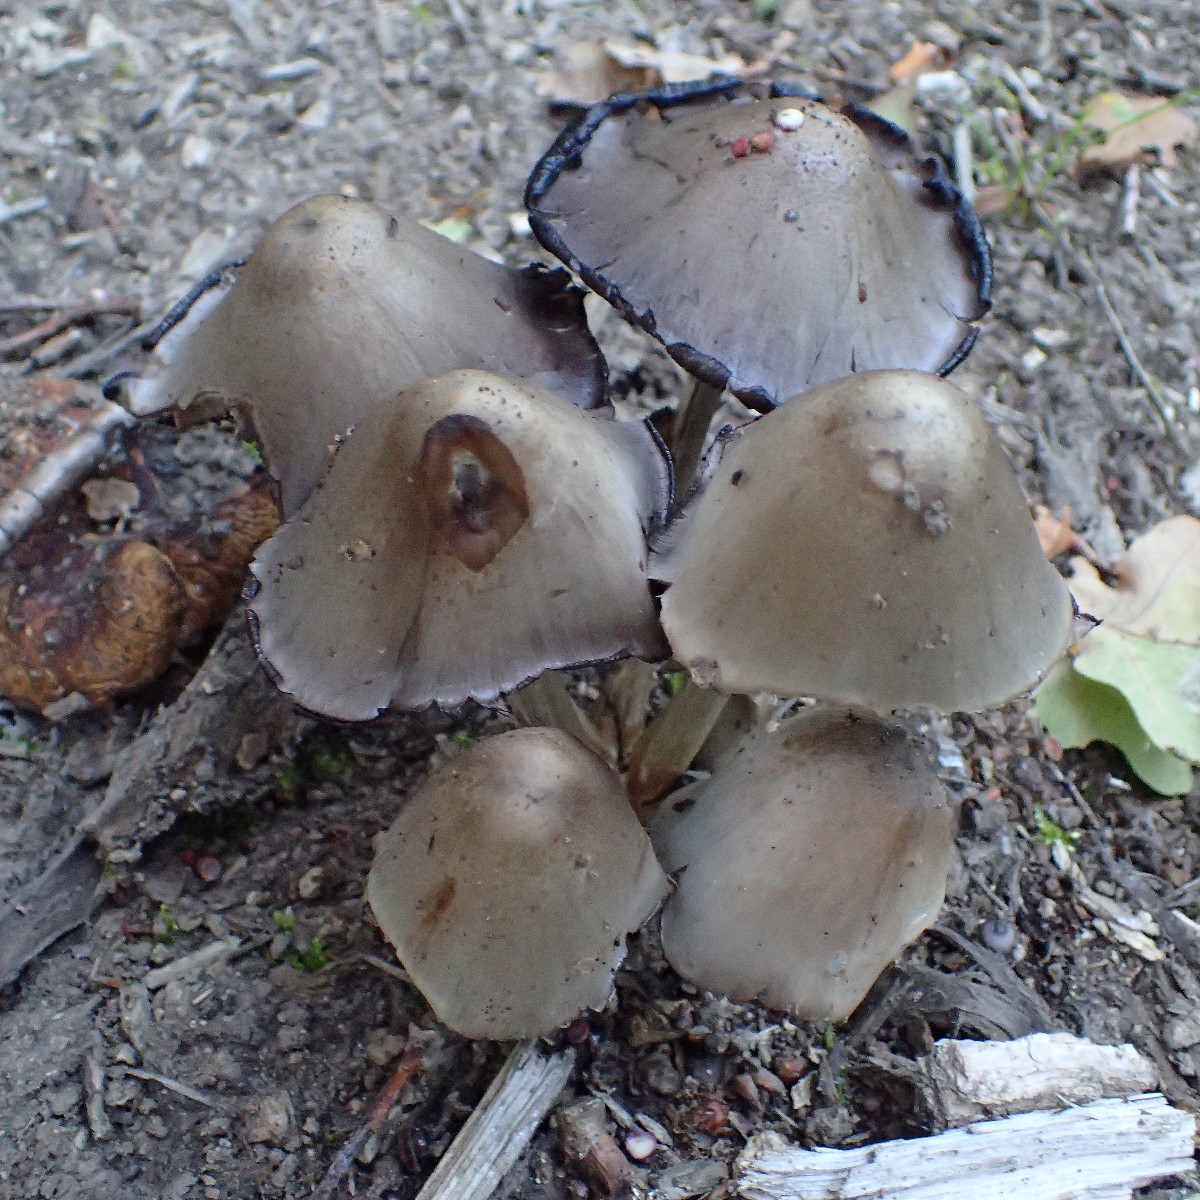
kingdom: Fungi
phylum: Basidiomycota
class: Agaricomycetes
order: Agaricales
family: Psathyrellaceae
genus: Coprinopsis
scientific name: Coprinopsis atramentaria
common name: almindelig blækhat
